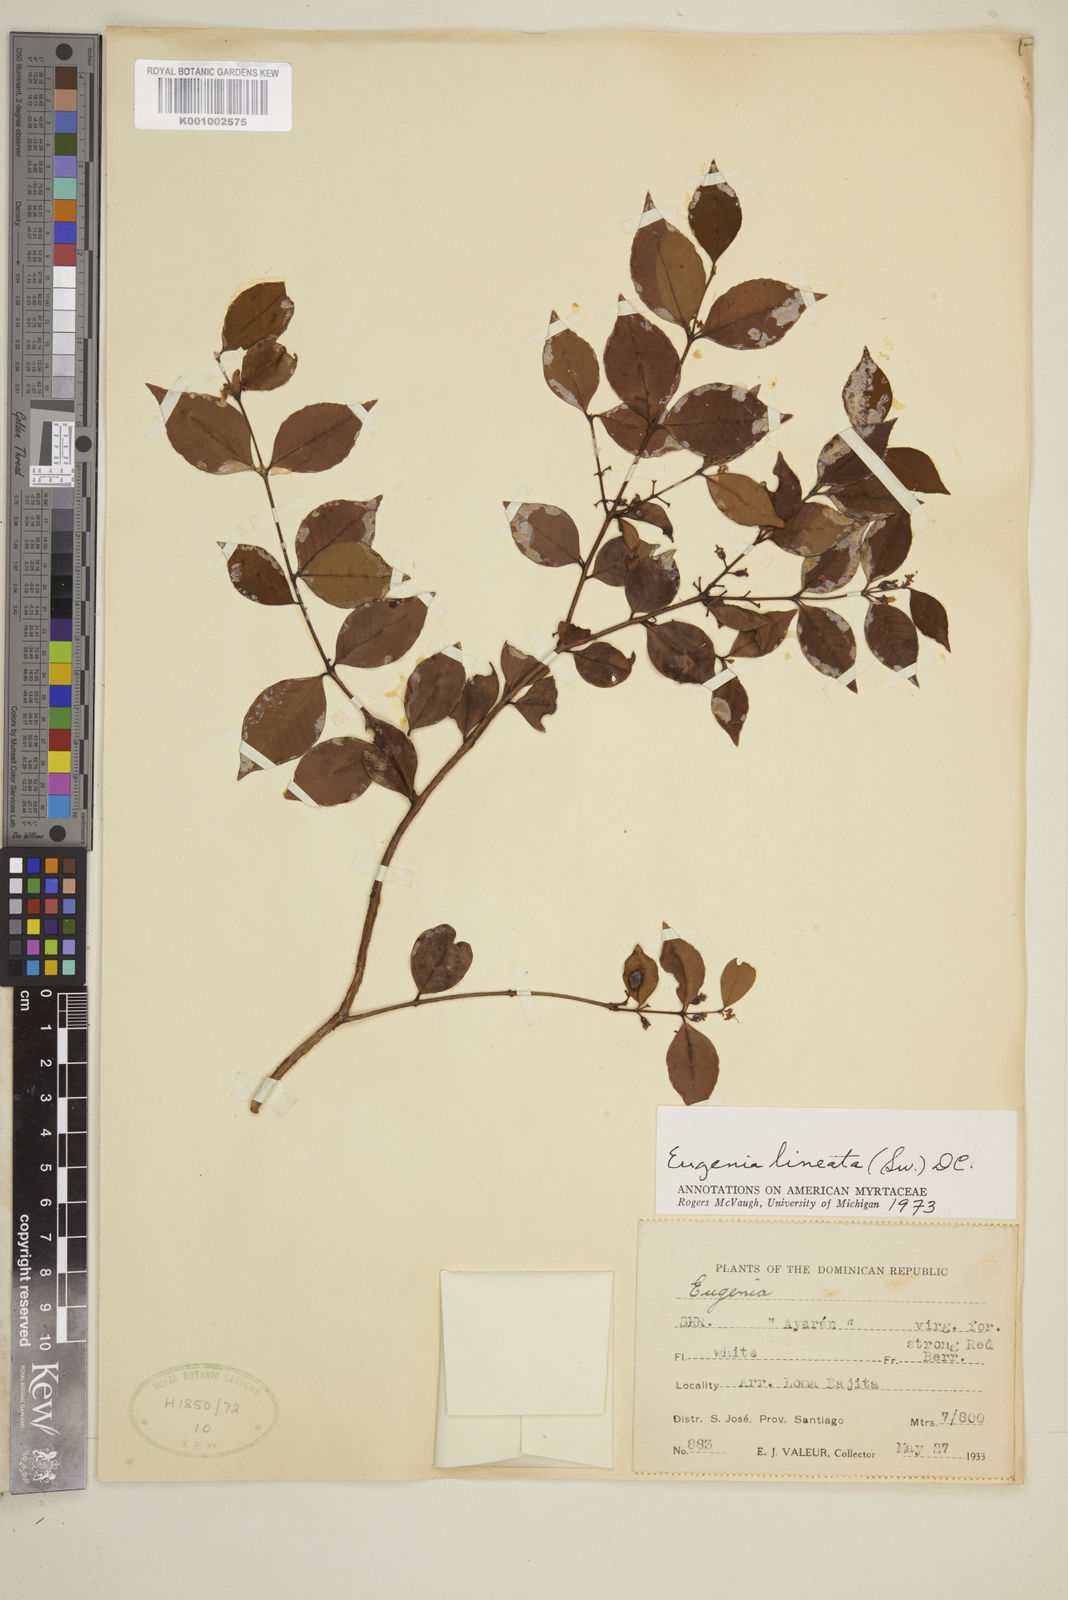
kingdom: Plantae
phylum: Tracheophyta
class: Magnoliopsida
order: Myrtales
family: Myrtaceae
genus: Eugenia
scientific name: Eugenia
